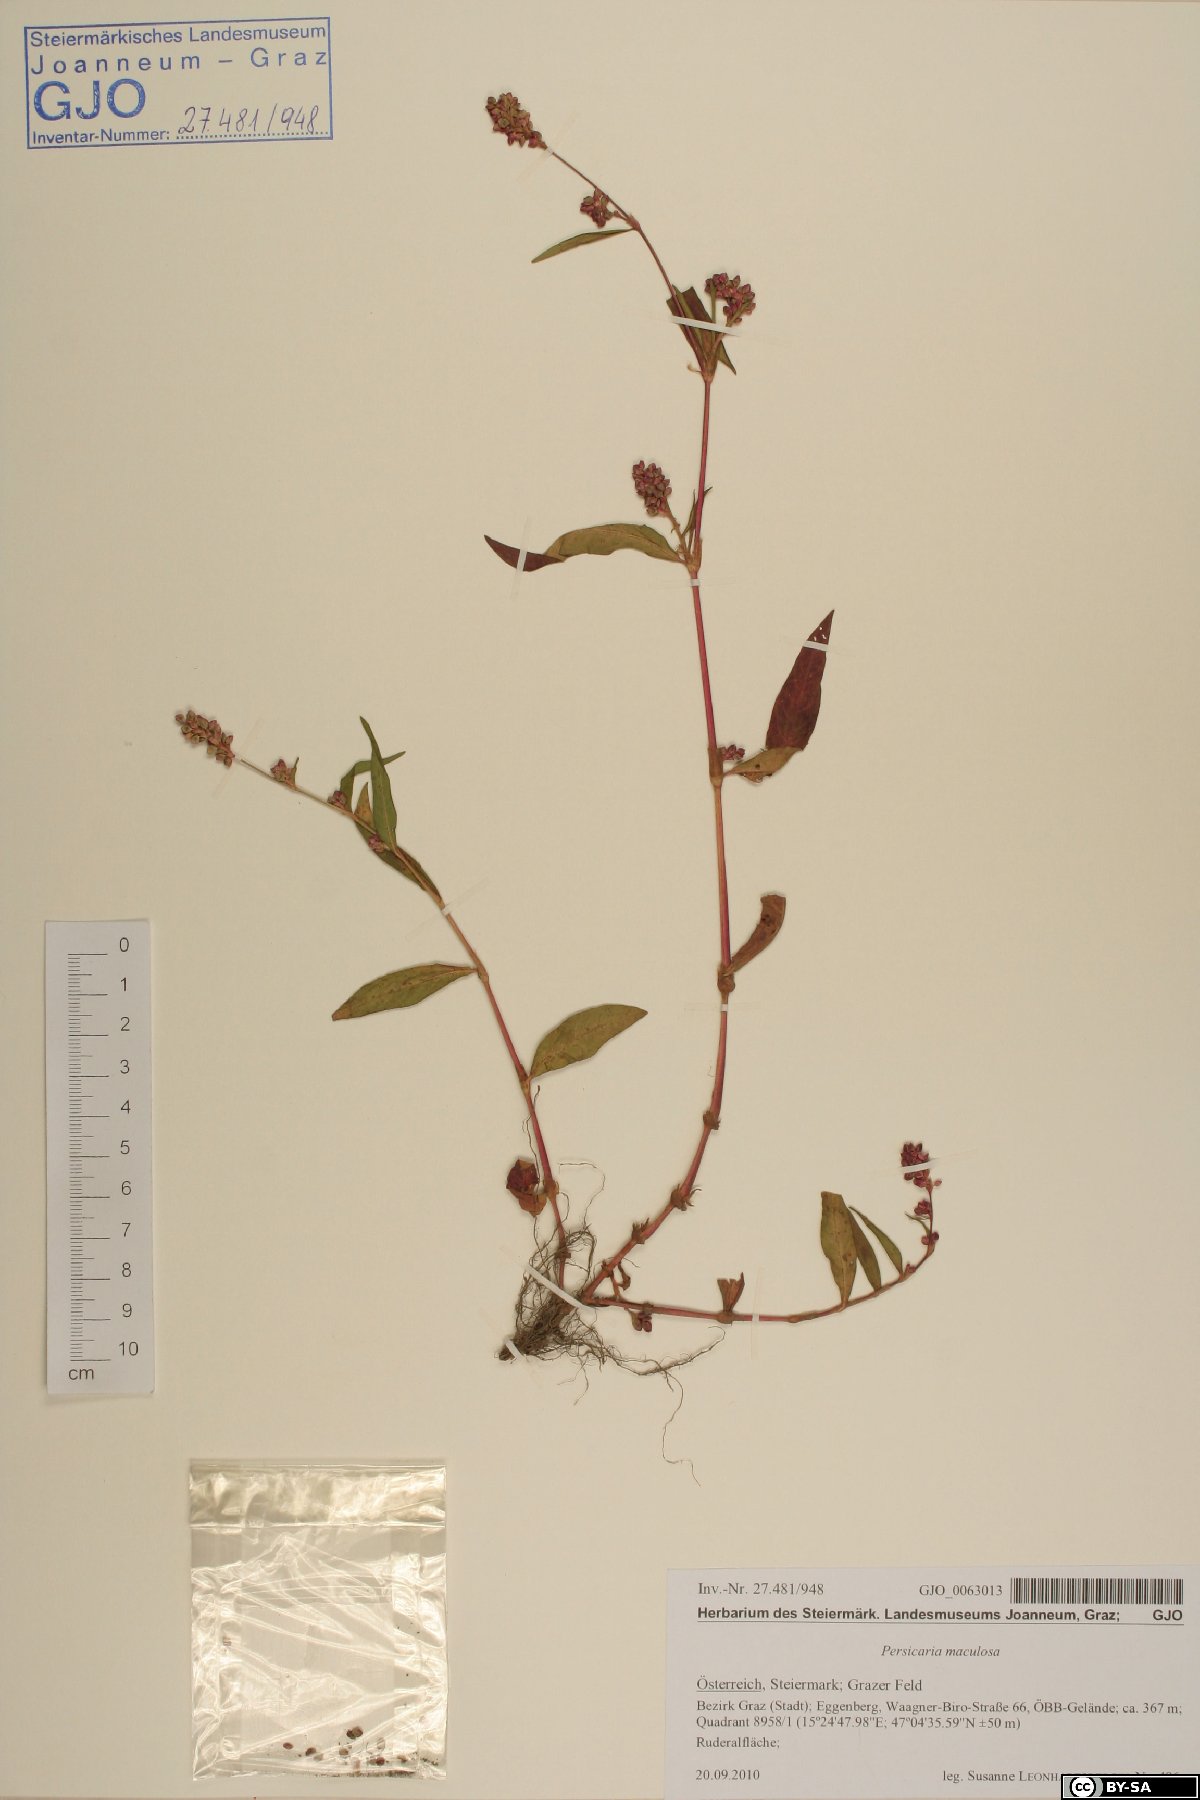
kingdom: Plantae
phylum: Tracheophyta
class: Magnoliopsida
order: Caryophyllales
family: Polygonaceae
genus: Persicaria
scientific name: Persicaria maculosa
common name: Redshank
